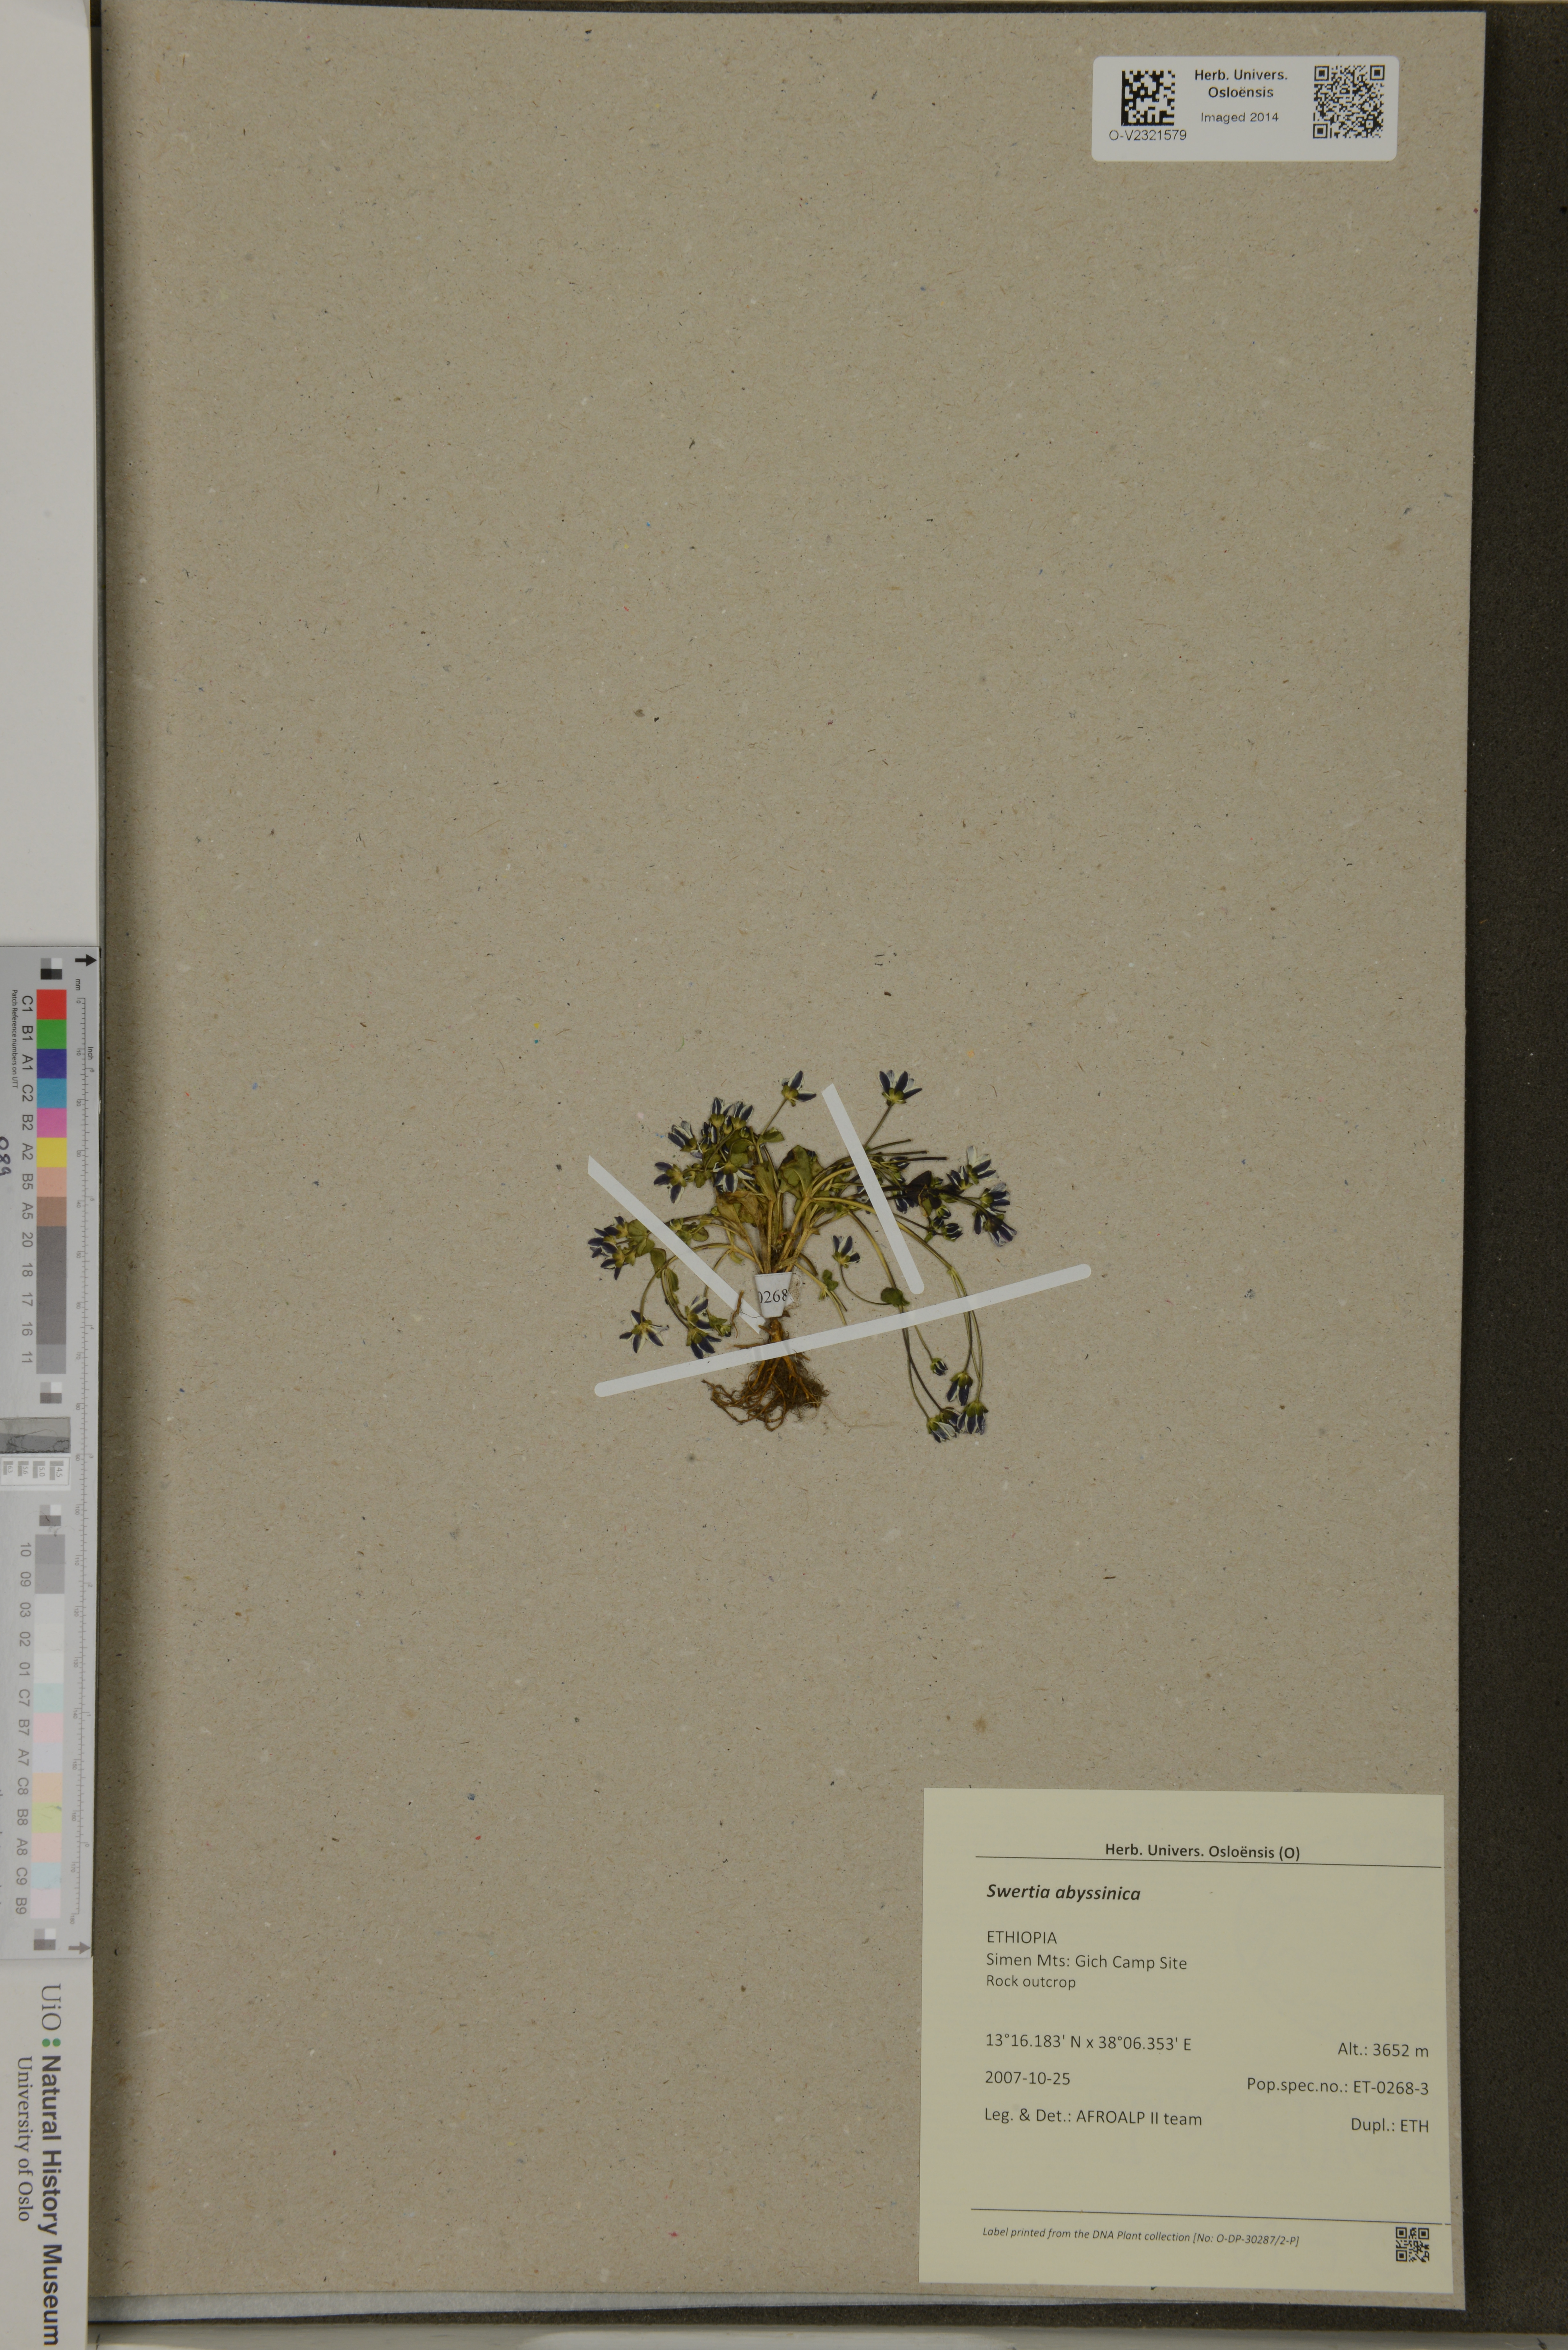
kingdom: Plantae
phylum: Tracheophyta
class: Magnoliopsida
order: Gentianales
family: Gentianaceae
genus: Swertia
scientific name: Swertia abyssinica
